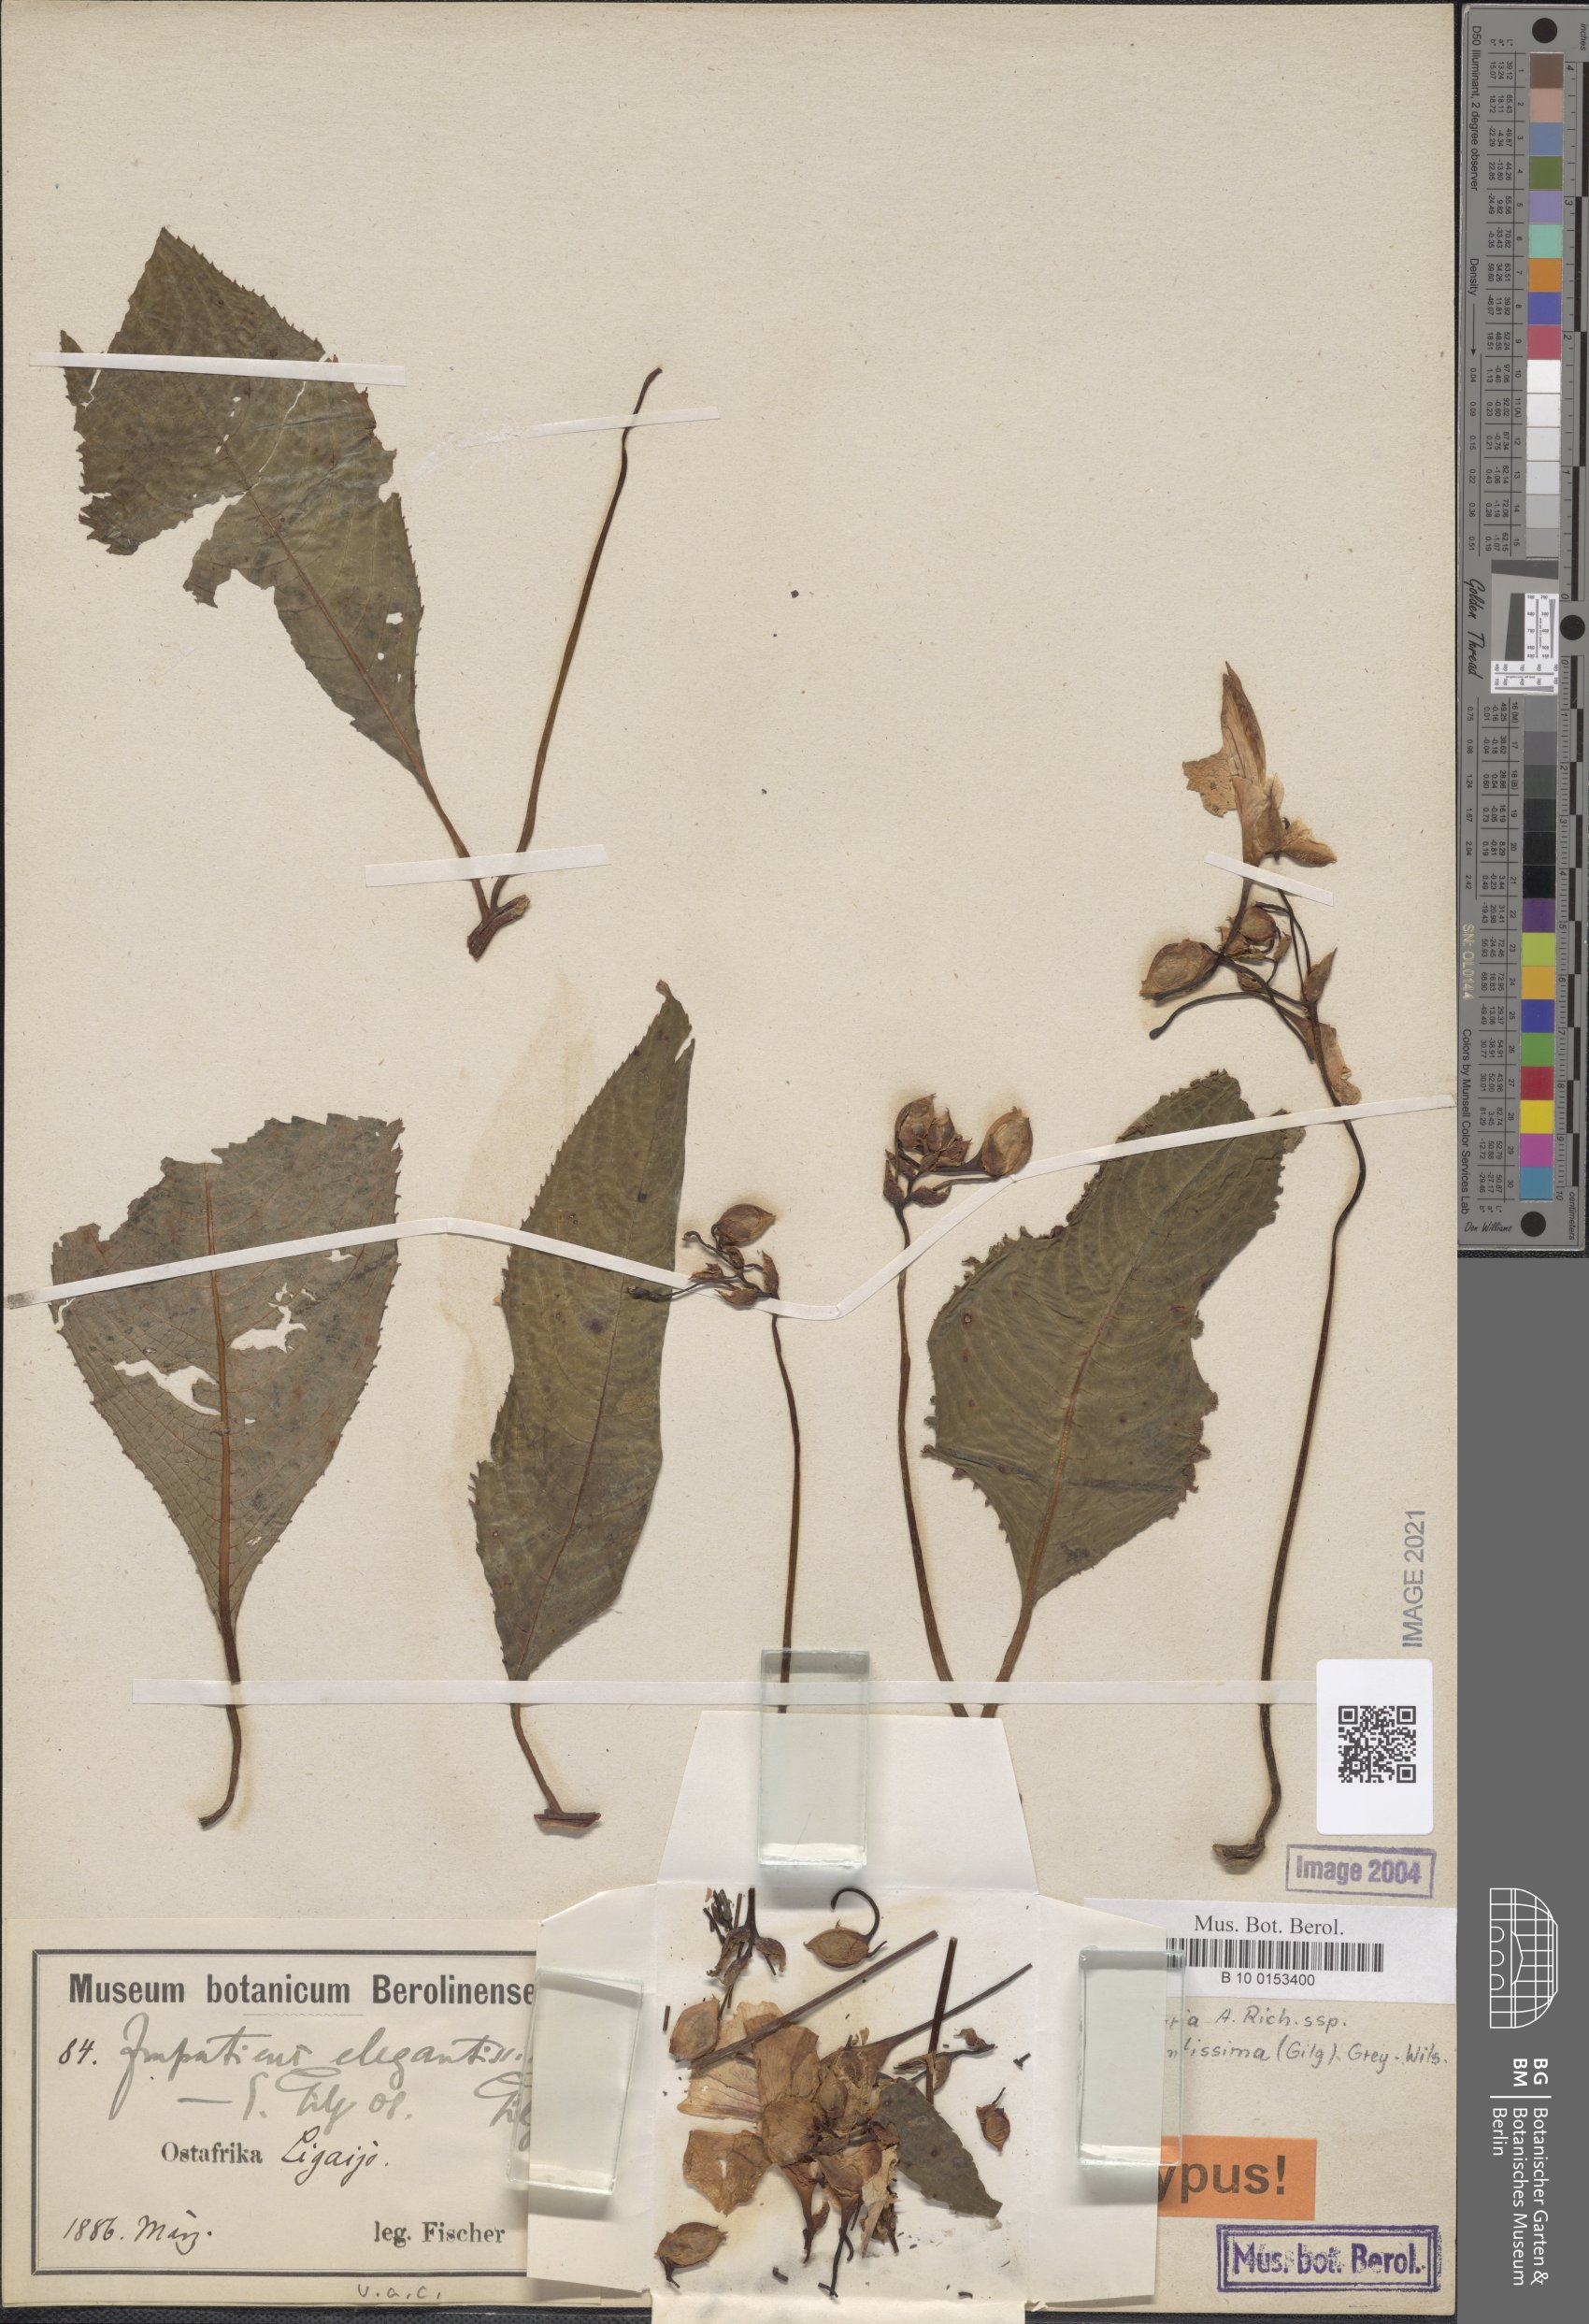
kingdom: Plantae
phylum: Tracheophyta
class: Magnoliopsida
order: Ericales
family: Balsaminaceae
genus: Impatiens
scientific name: Impatiens tinctoria
